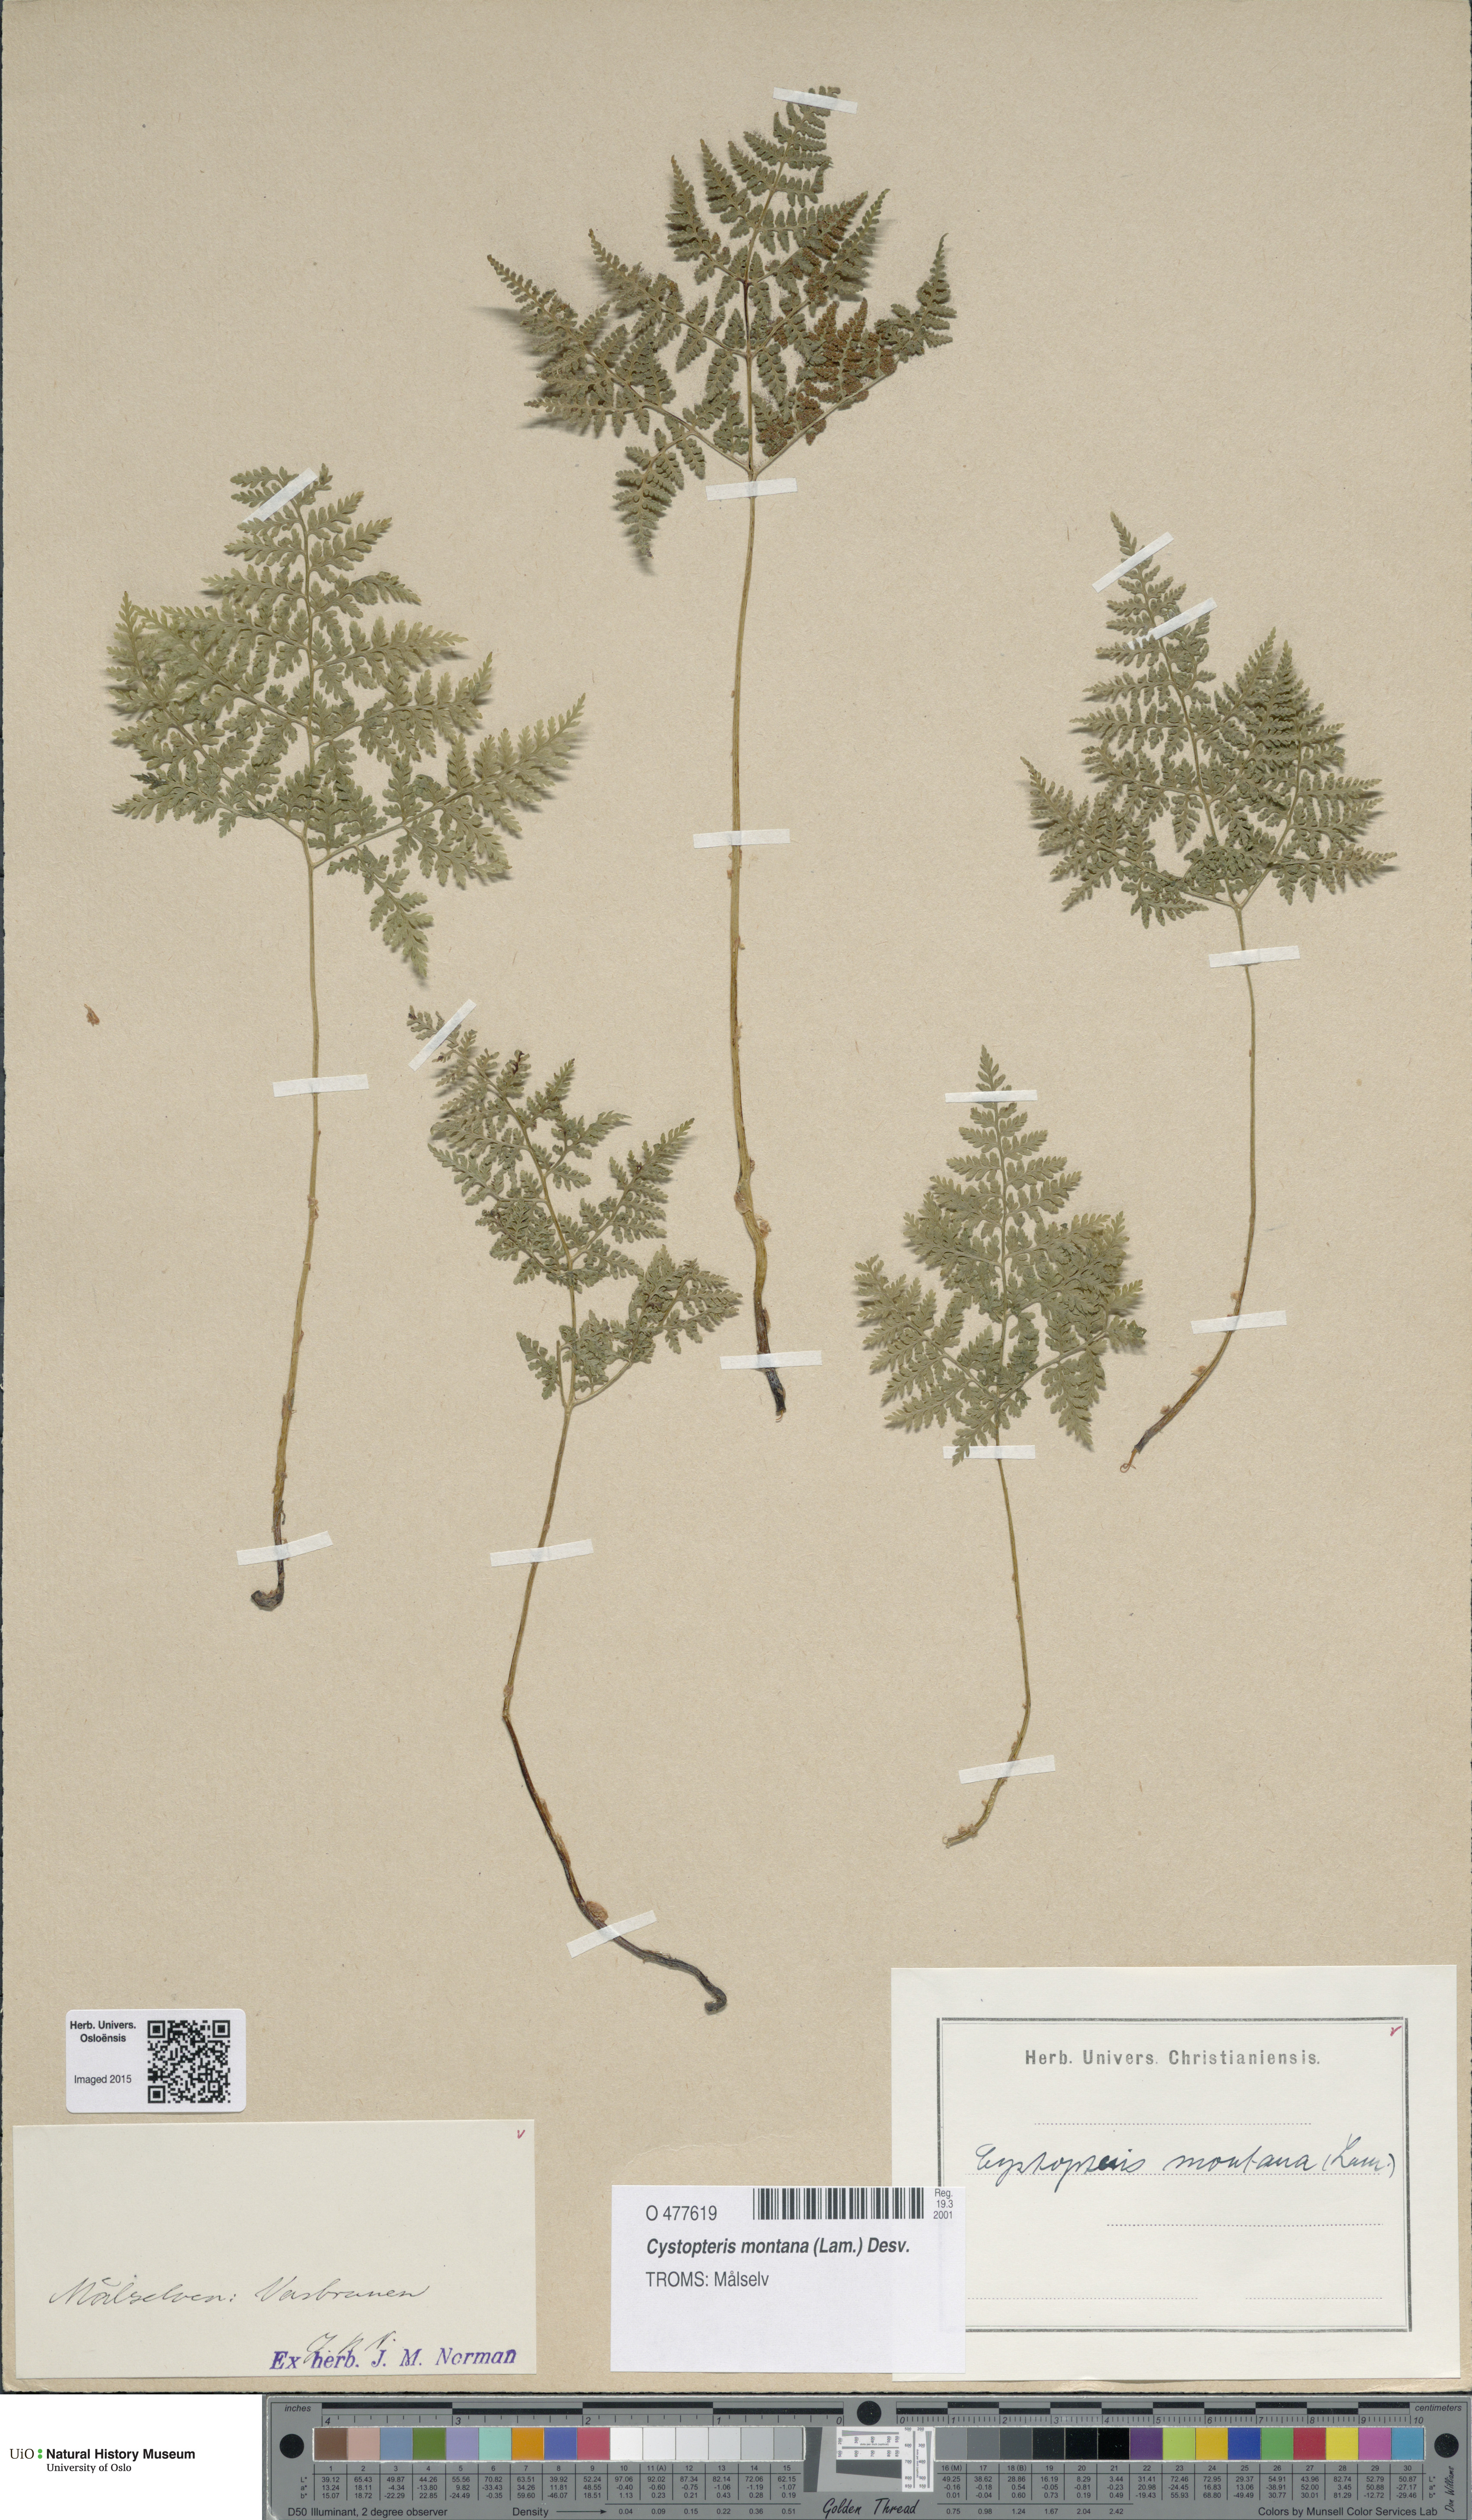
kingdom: Plantae
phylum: Tracheophyta
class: Polypodiopsida
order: Polypodiales
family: Cystopteridaceae
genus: Cystopteris
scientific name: Cystopteris montana
